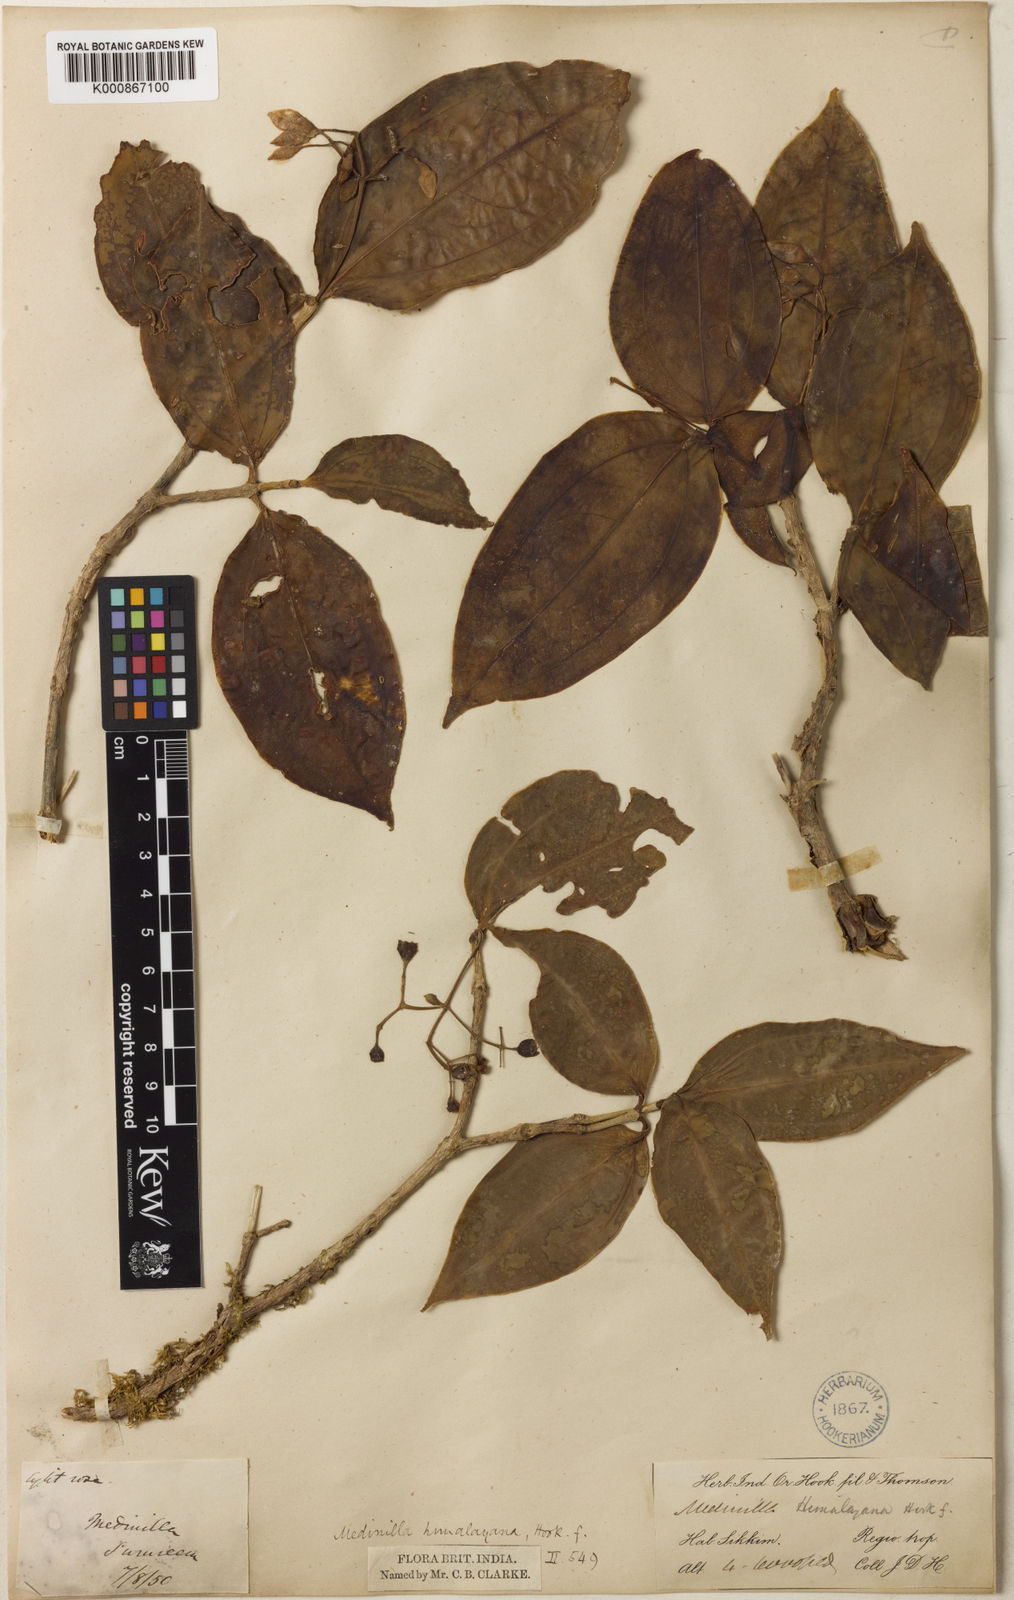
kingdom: Plantae
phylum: Tracheophyta
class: Magnoliopsida
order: Myrtales
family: Melastomataceae
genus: Medinilla
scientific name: Medinilla himalayana
